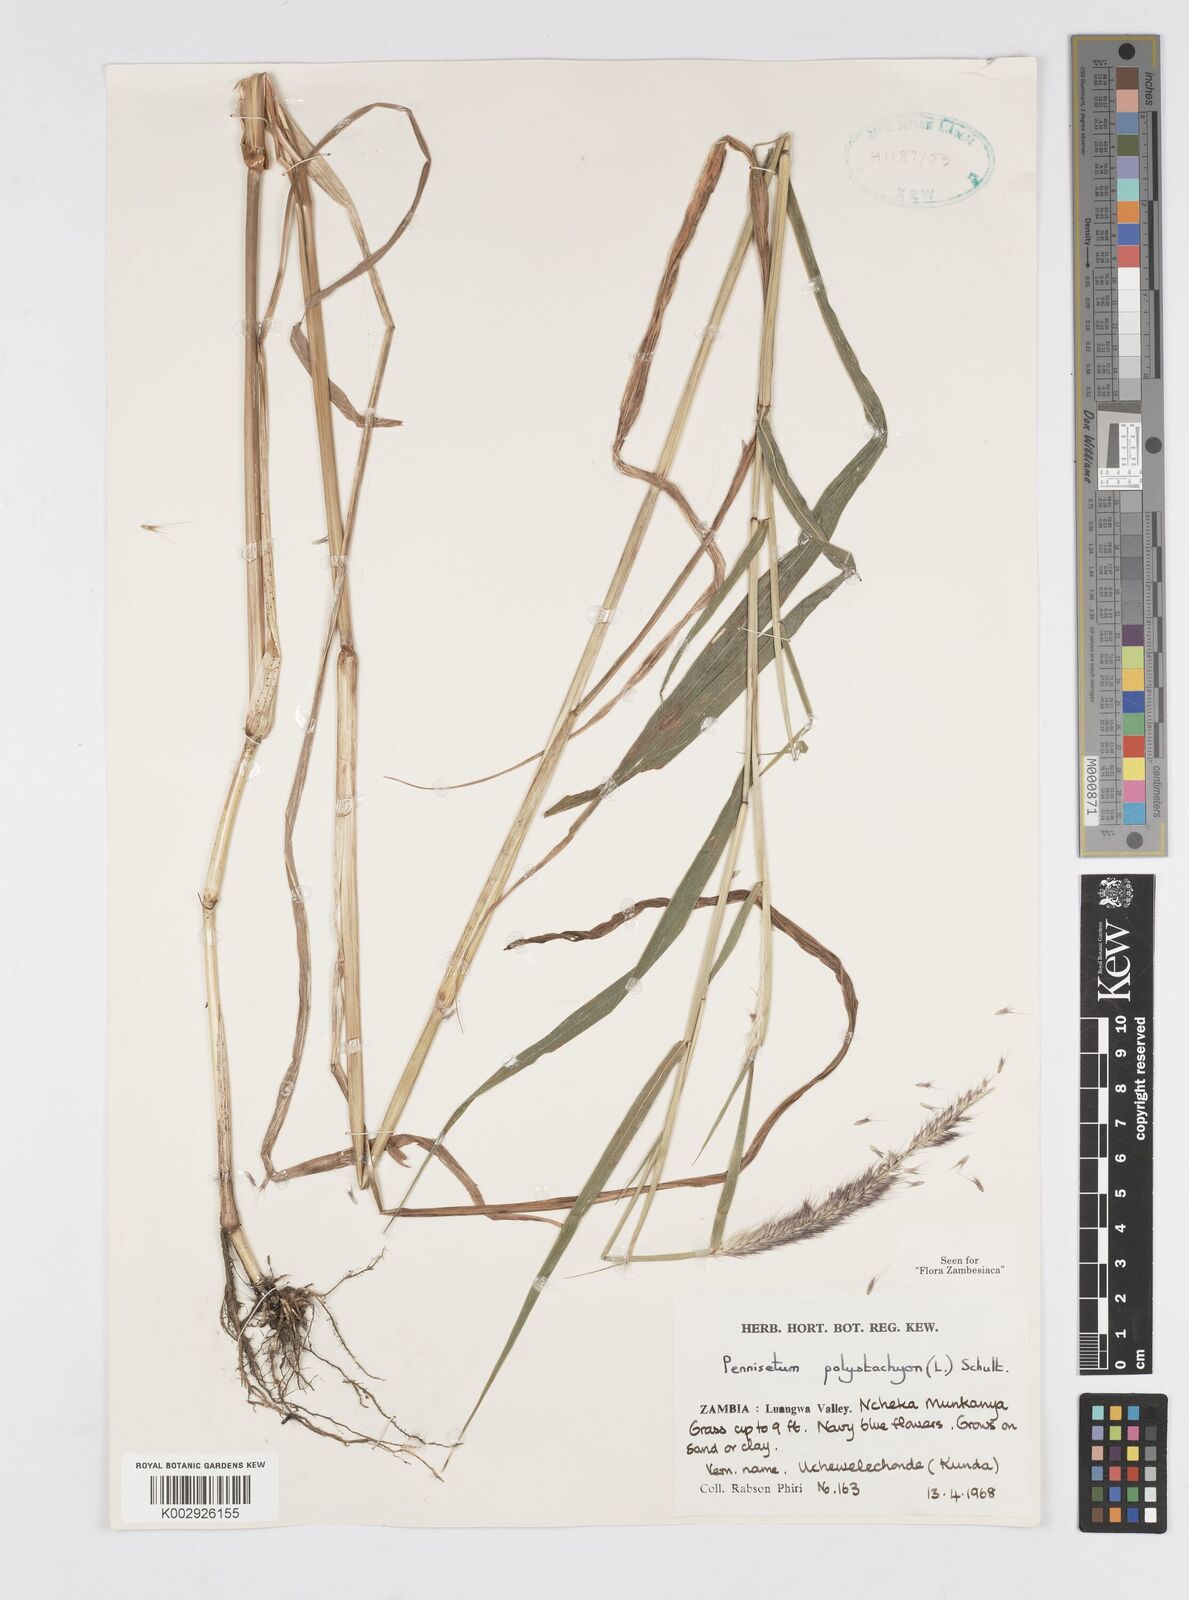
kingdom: Plantae
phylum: Tracheophyta
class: Liliopsida
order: Poales
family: Poaceae
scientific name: Poaceae
